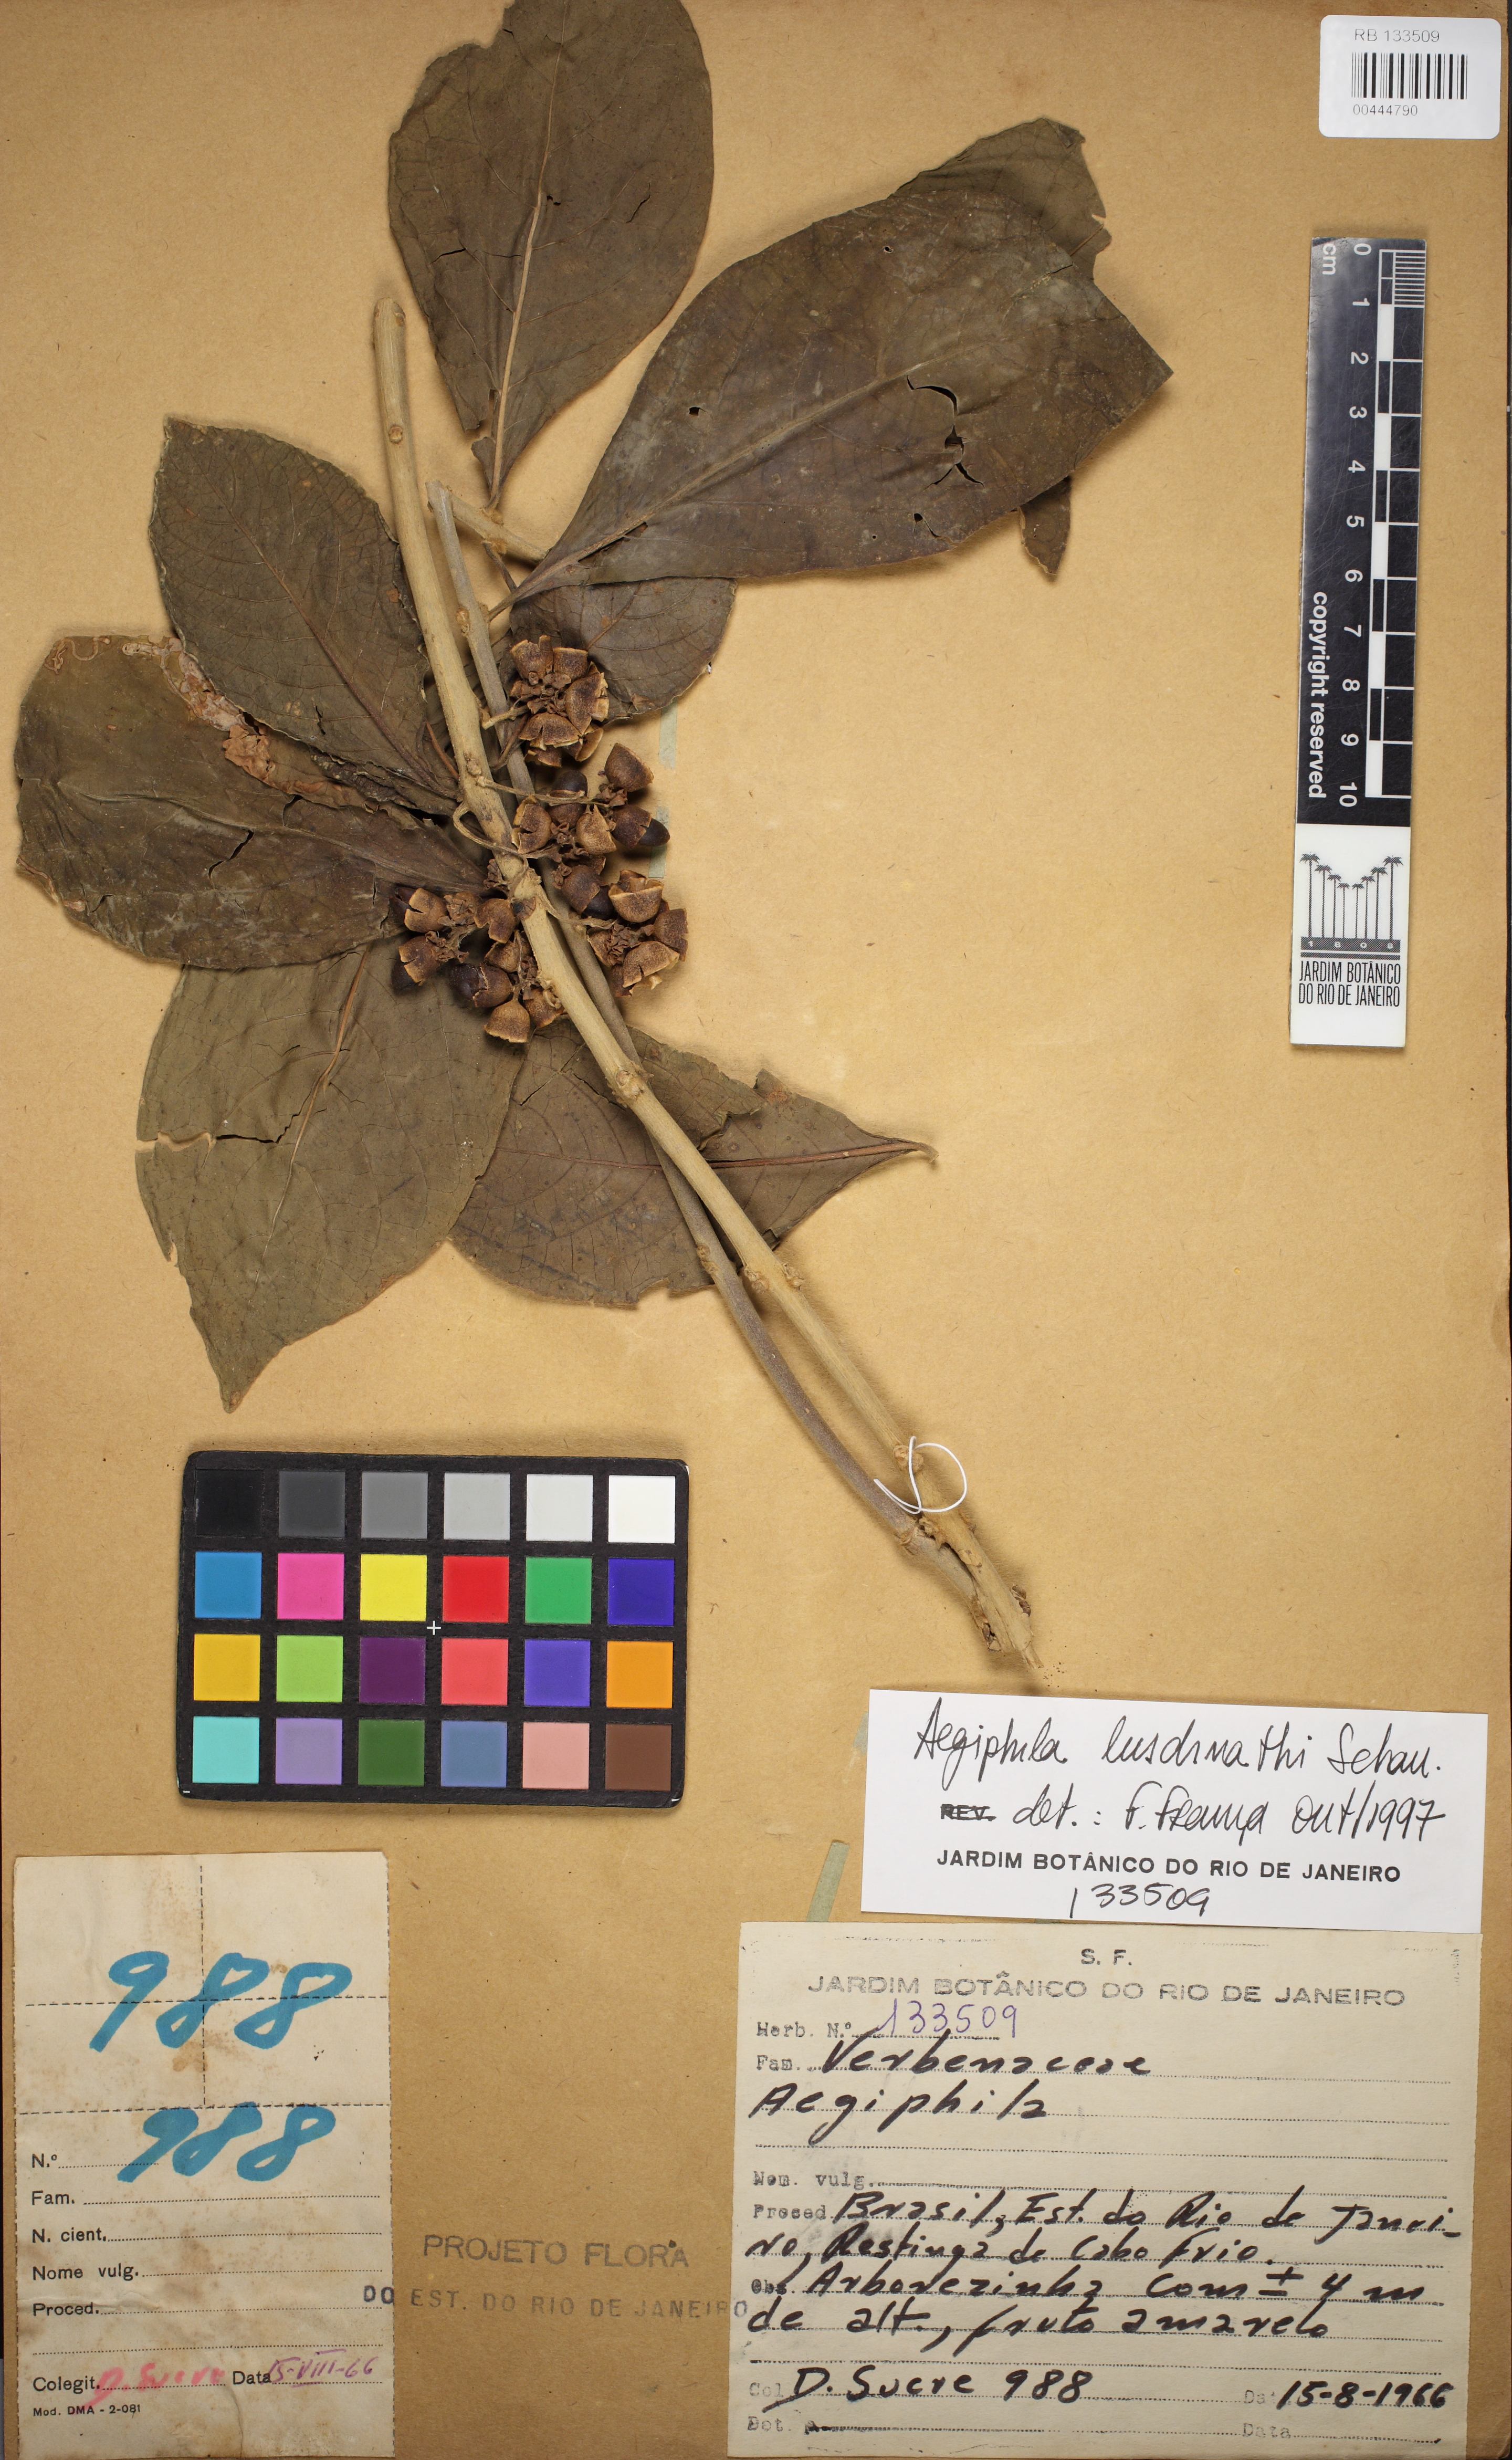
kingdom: Plantae
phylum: Tracheophyta
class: Magnoliopsida
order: Lamiales
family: Lamiaceae
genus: Aegiphila
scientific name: Aegiphila luschnathii
